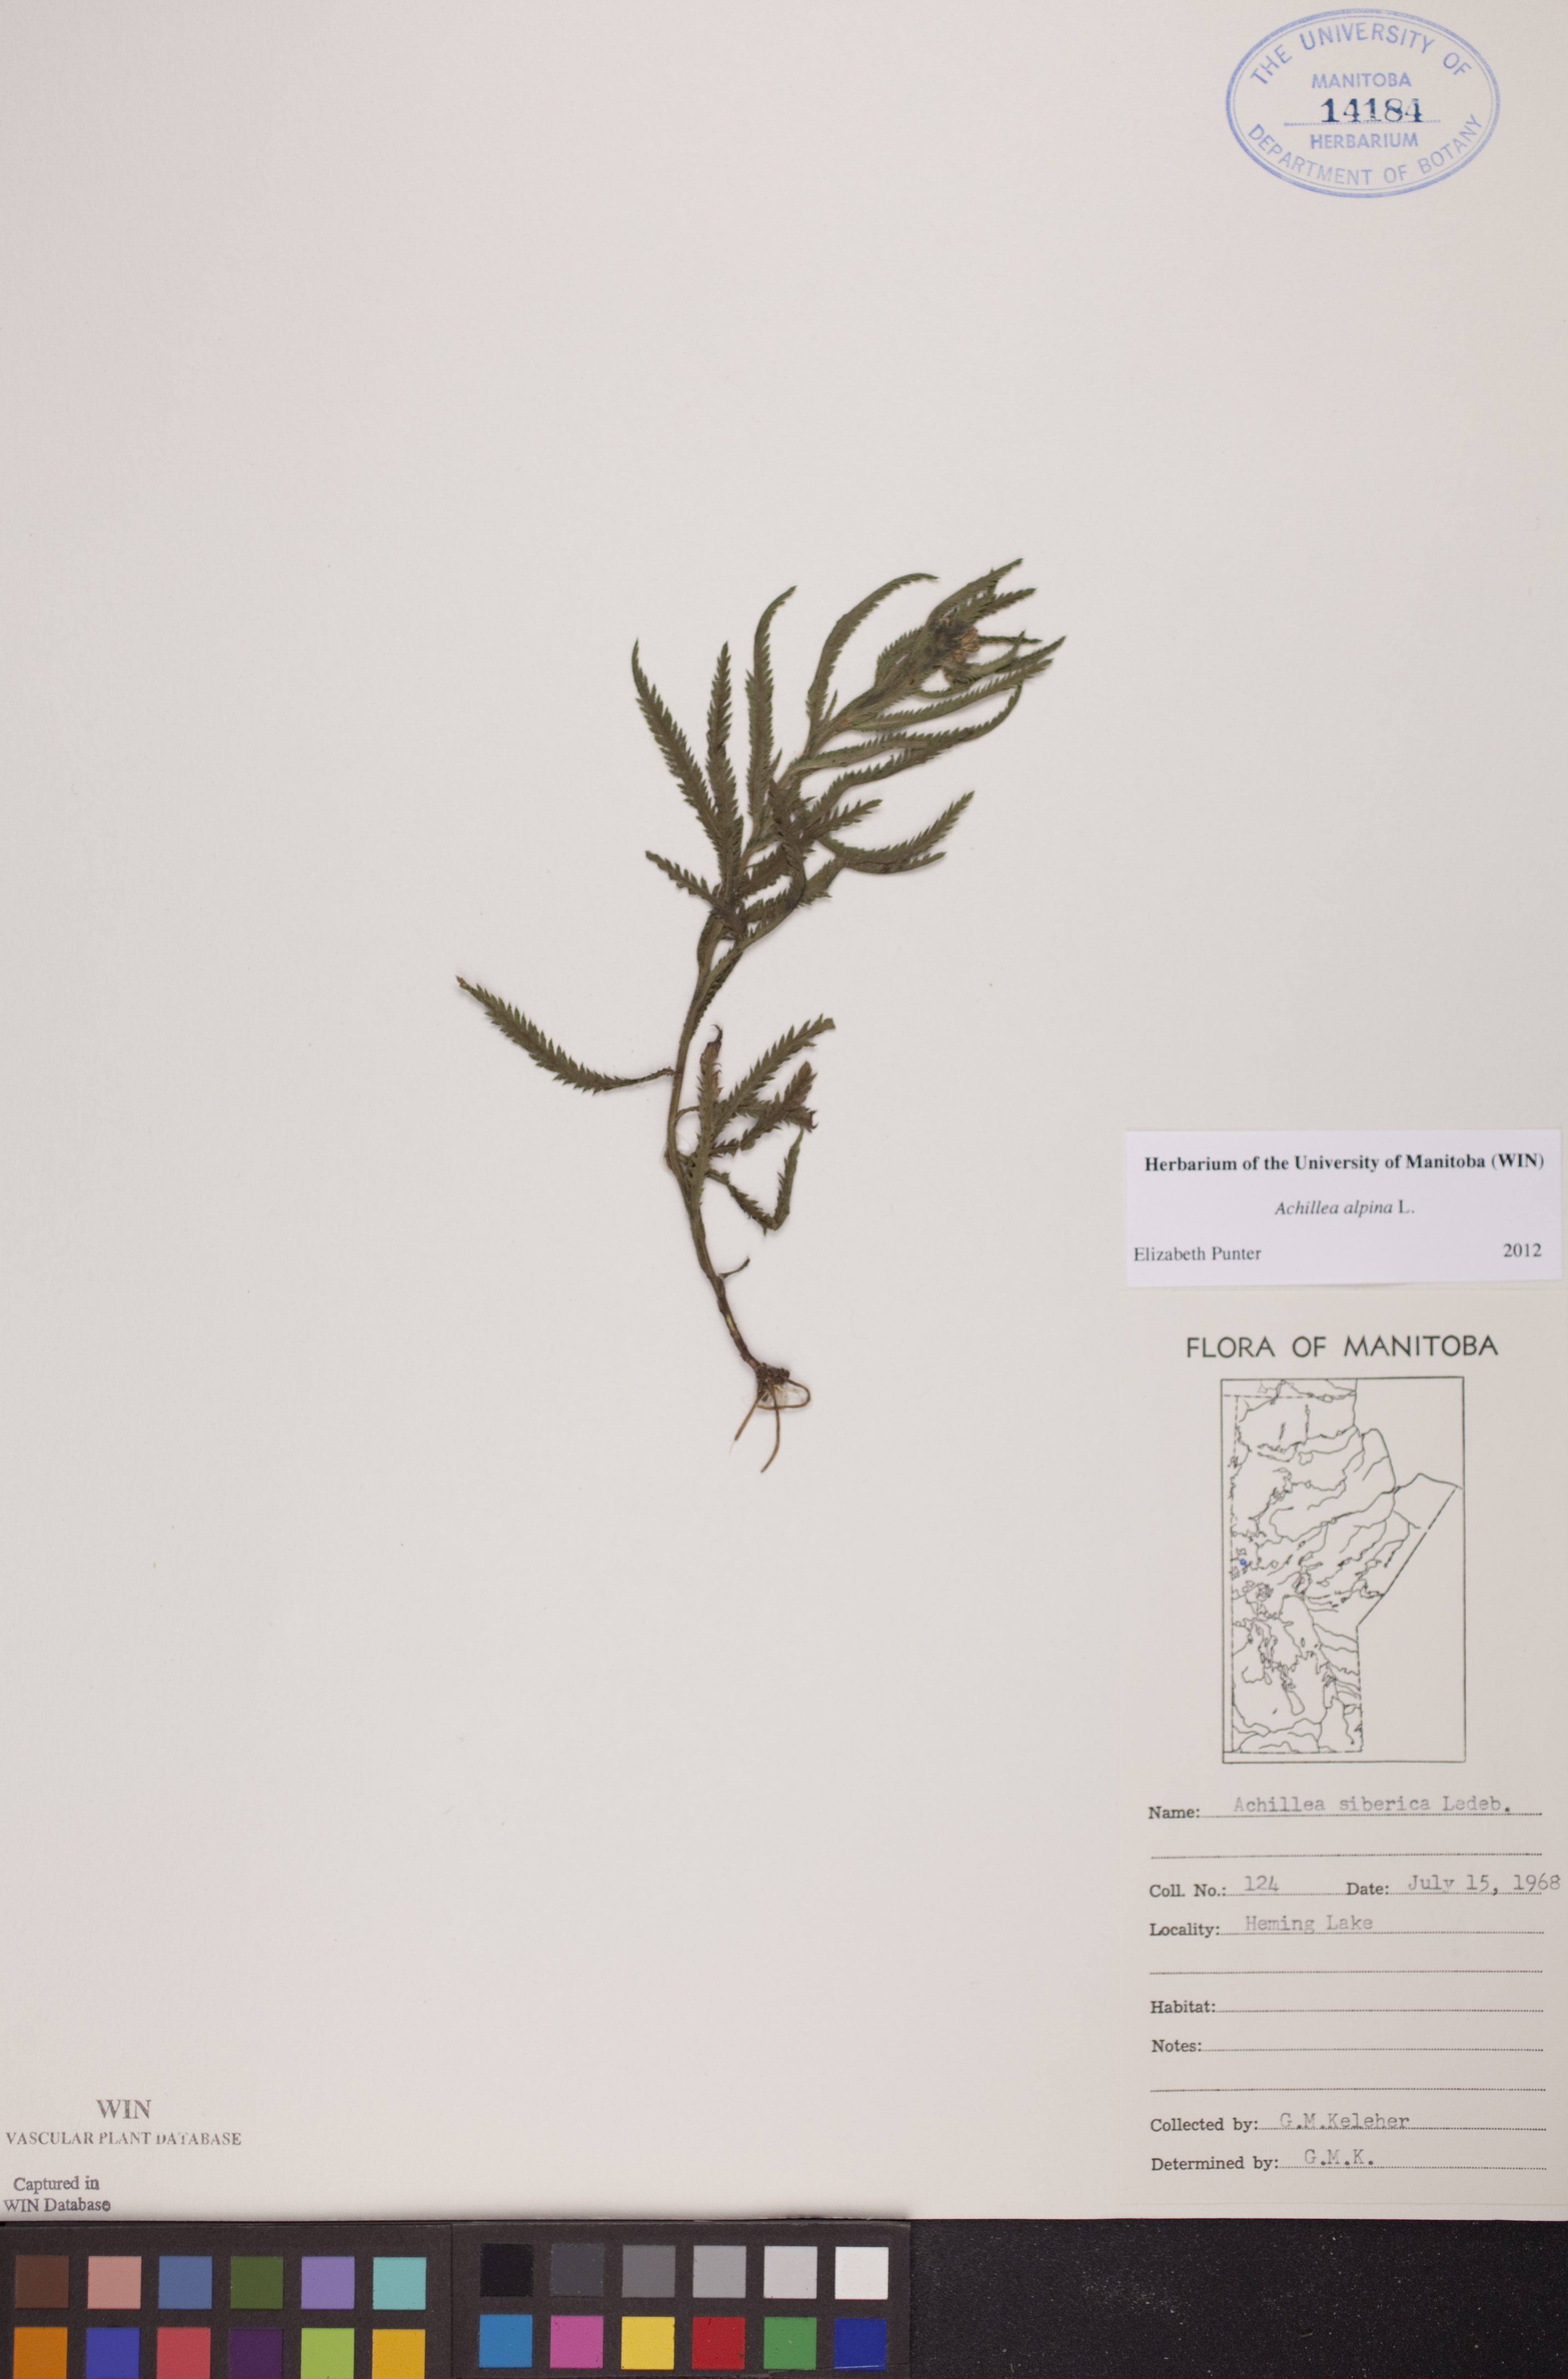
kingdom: Plantae
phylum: Tracheophyta
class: Magnoliopsida
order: Asterales
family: Asteraceae
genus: Achillea
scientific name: Achillea alpina
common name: Siberian yarrow
